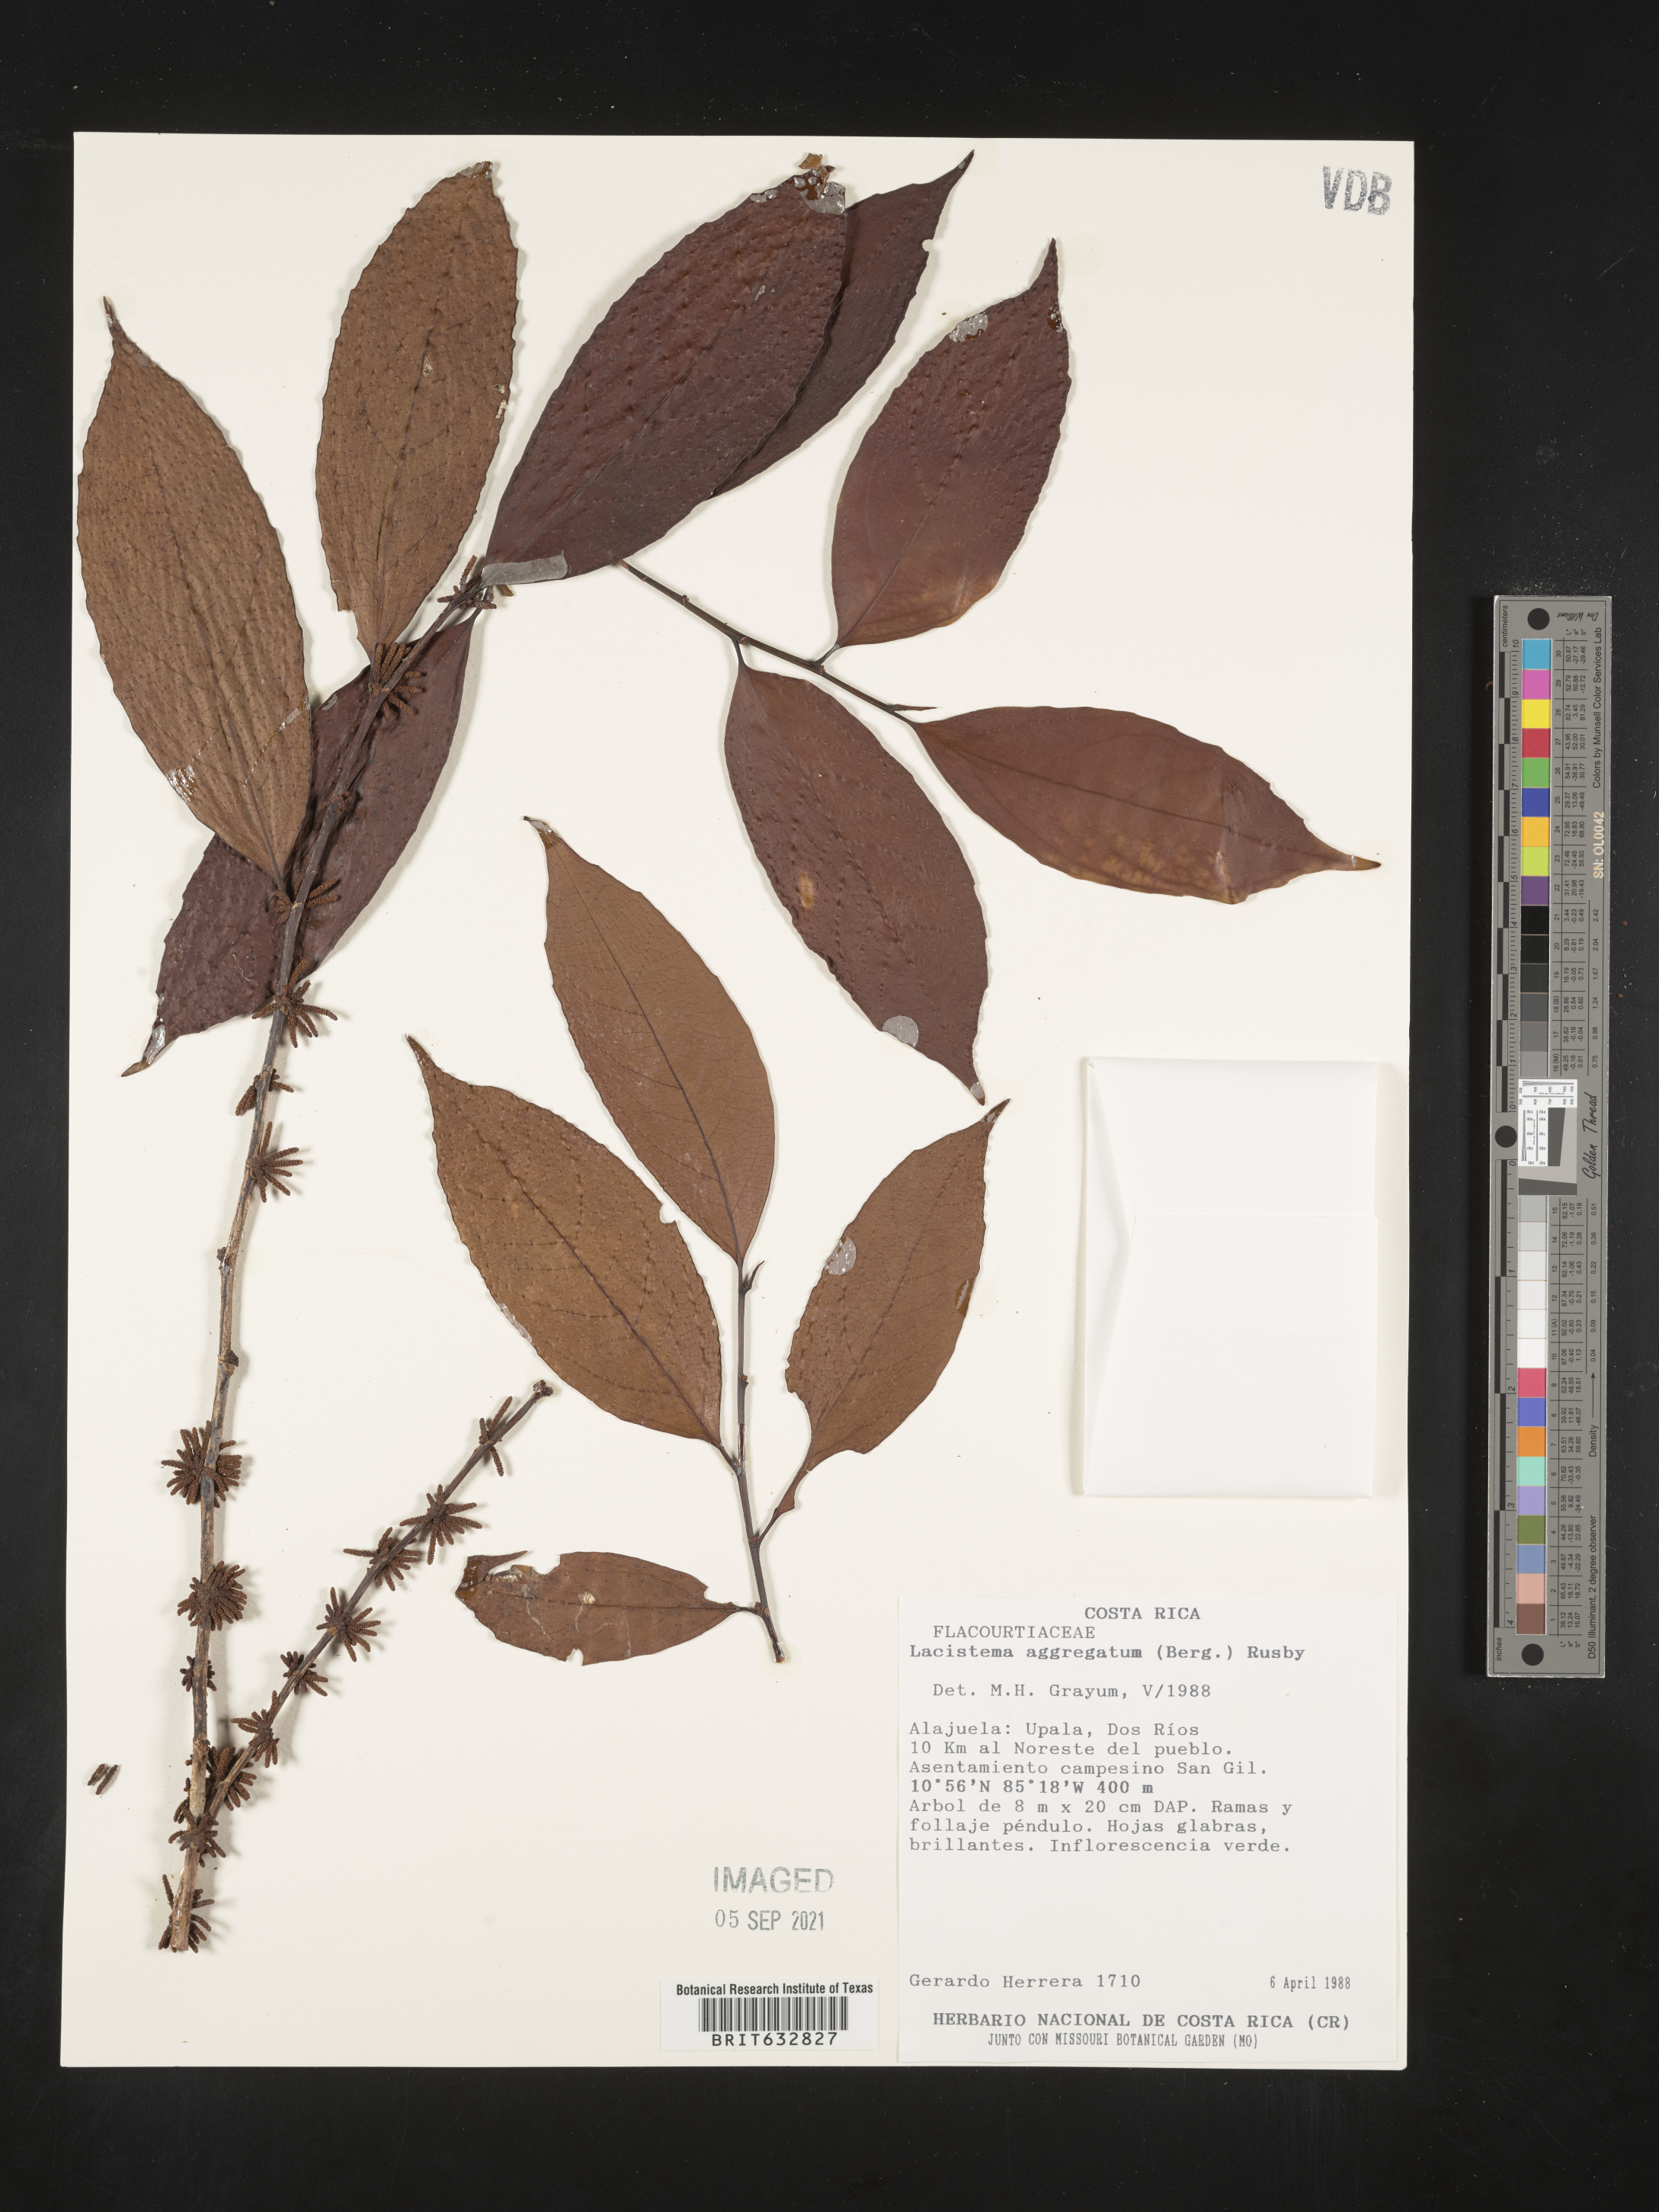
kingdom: Plantae
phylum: Tracheophyta
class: Magnoliopsida
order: Malpighiales
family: Lacistemataceae
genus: Lacistema
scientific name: Lacistema
